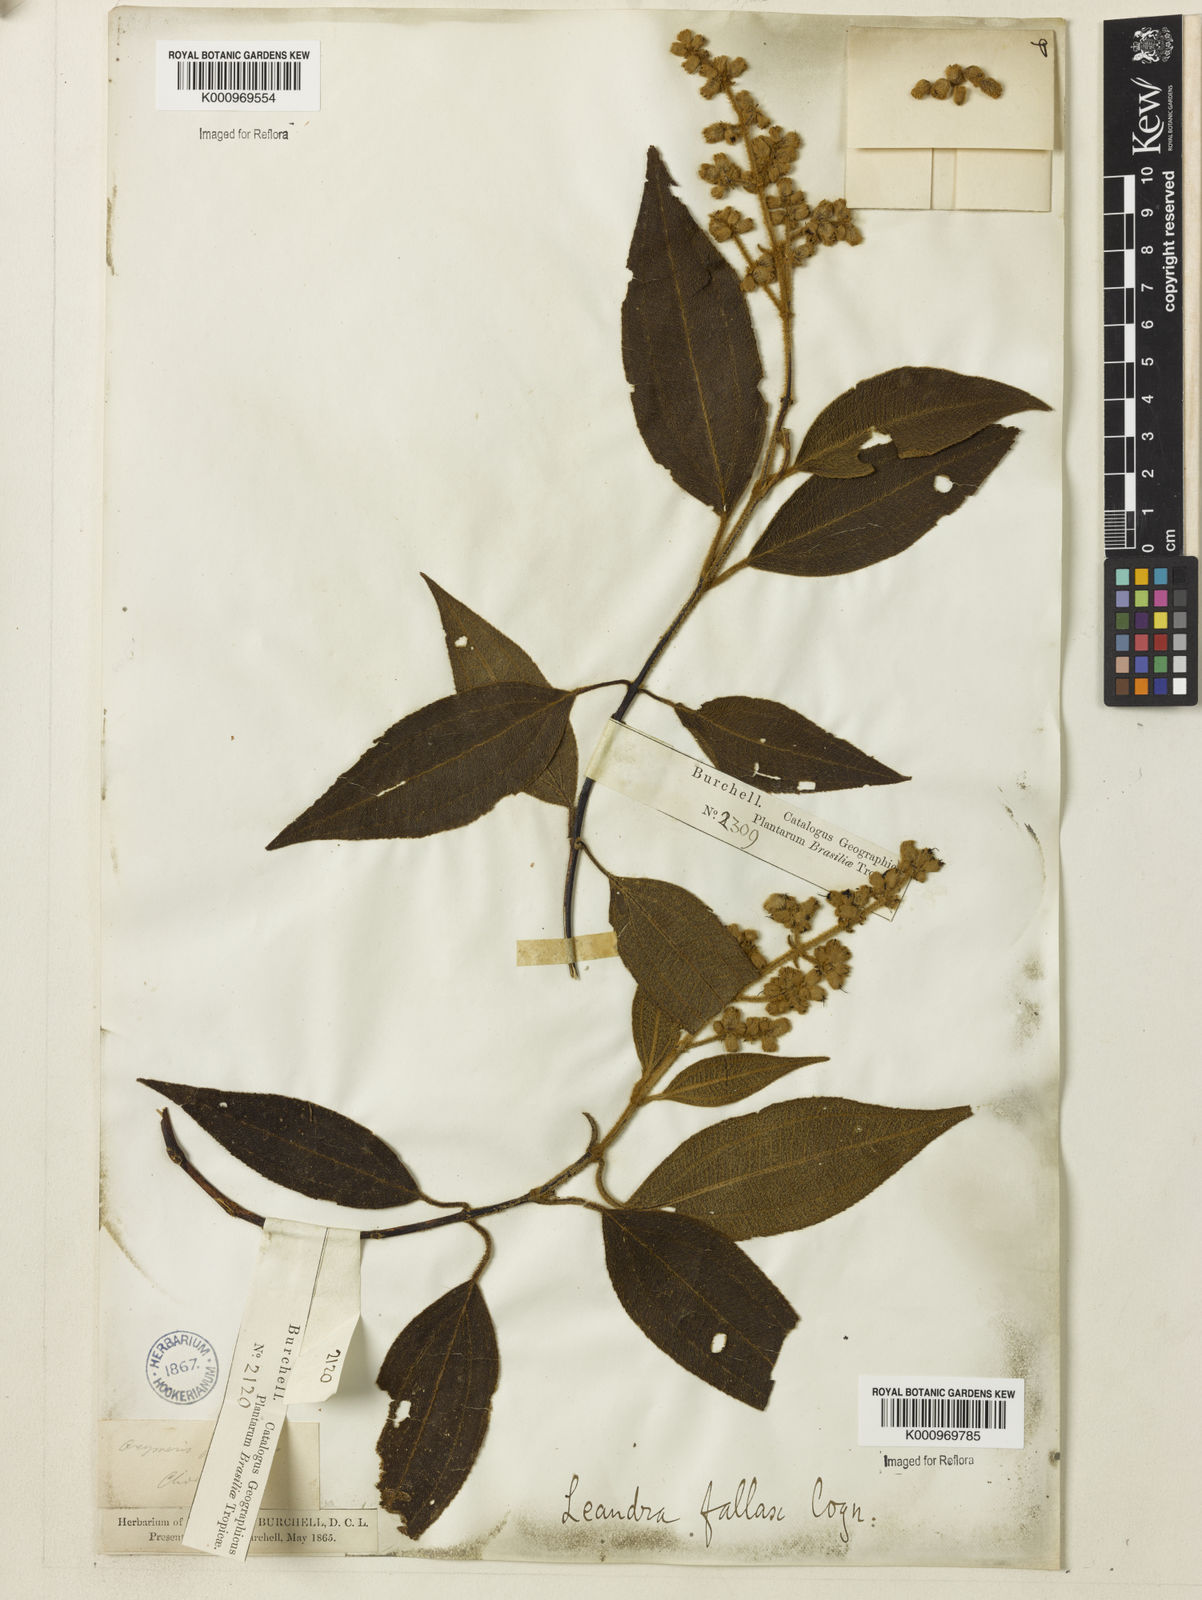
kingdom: Plantae
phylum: Tracheophyta
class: Magnoliopsida
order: Myrtales
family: Melastomataceae
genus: Miconia
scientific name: Miconia leafallax
